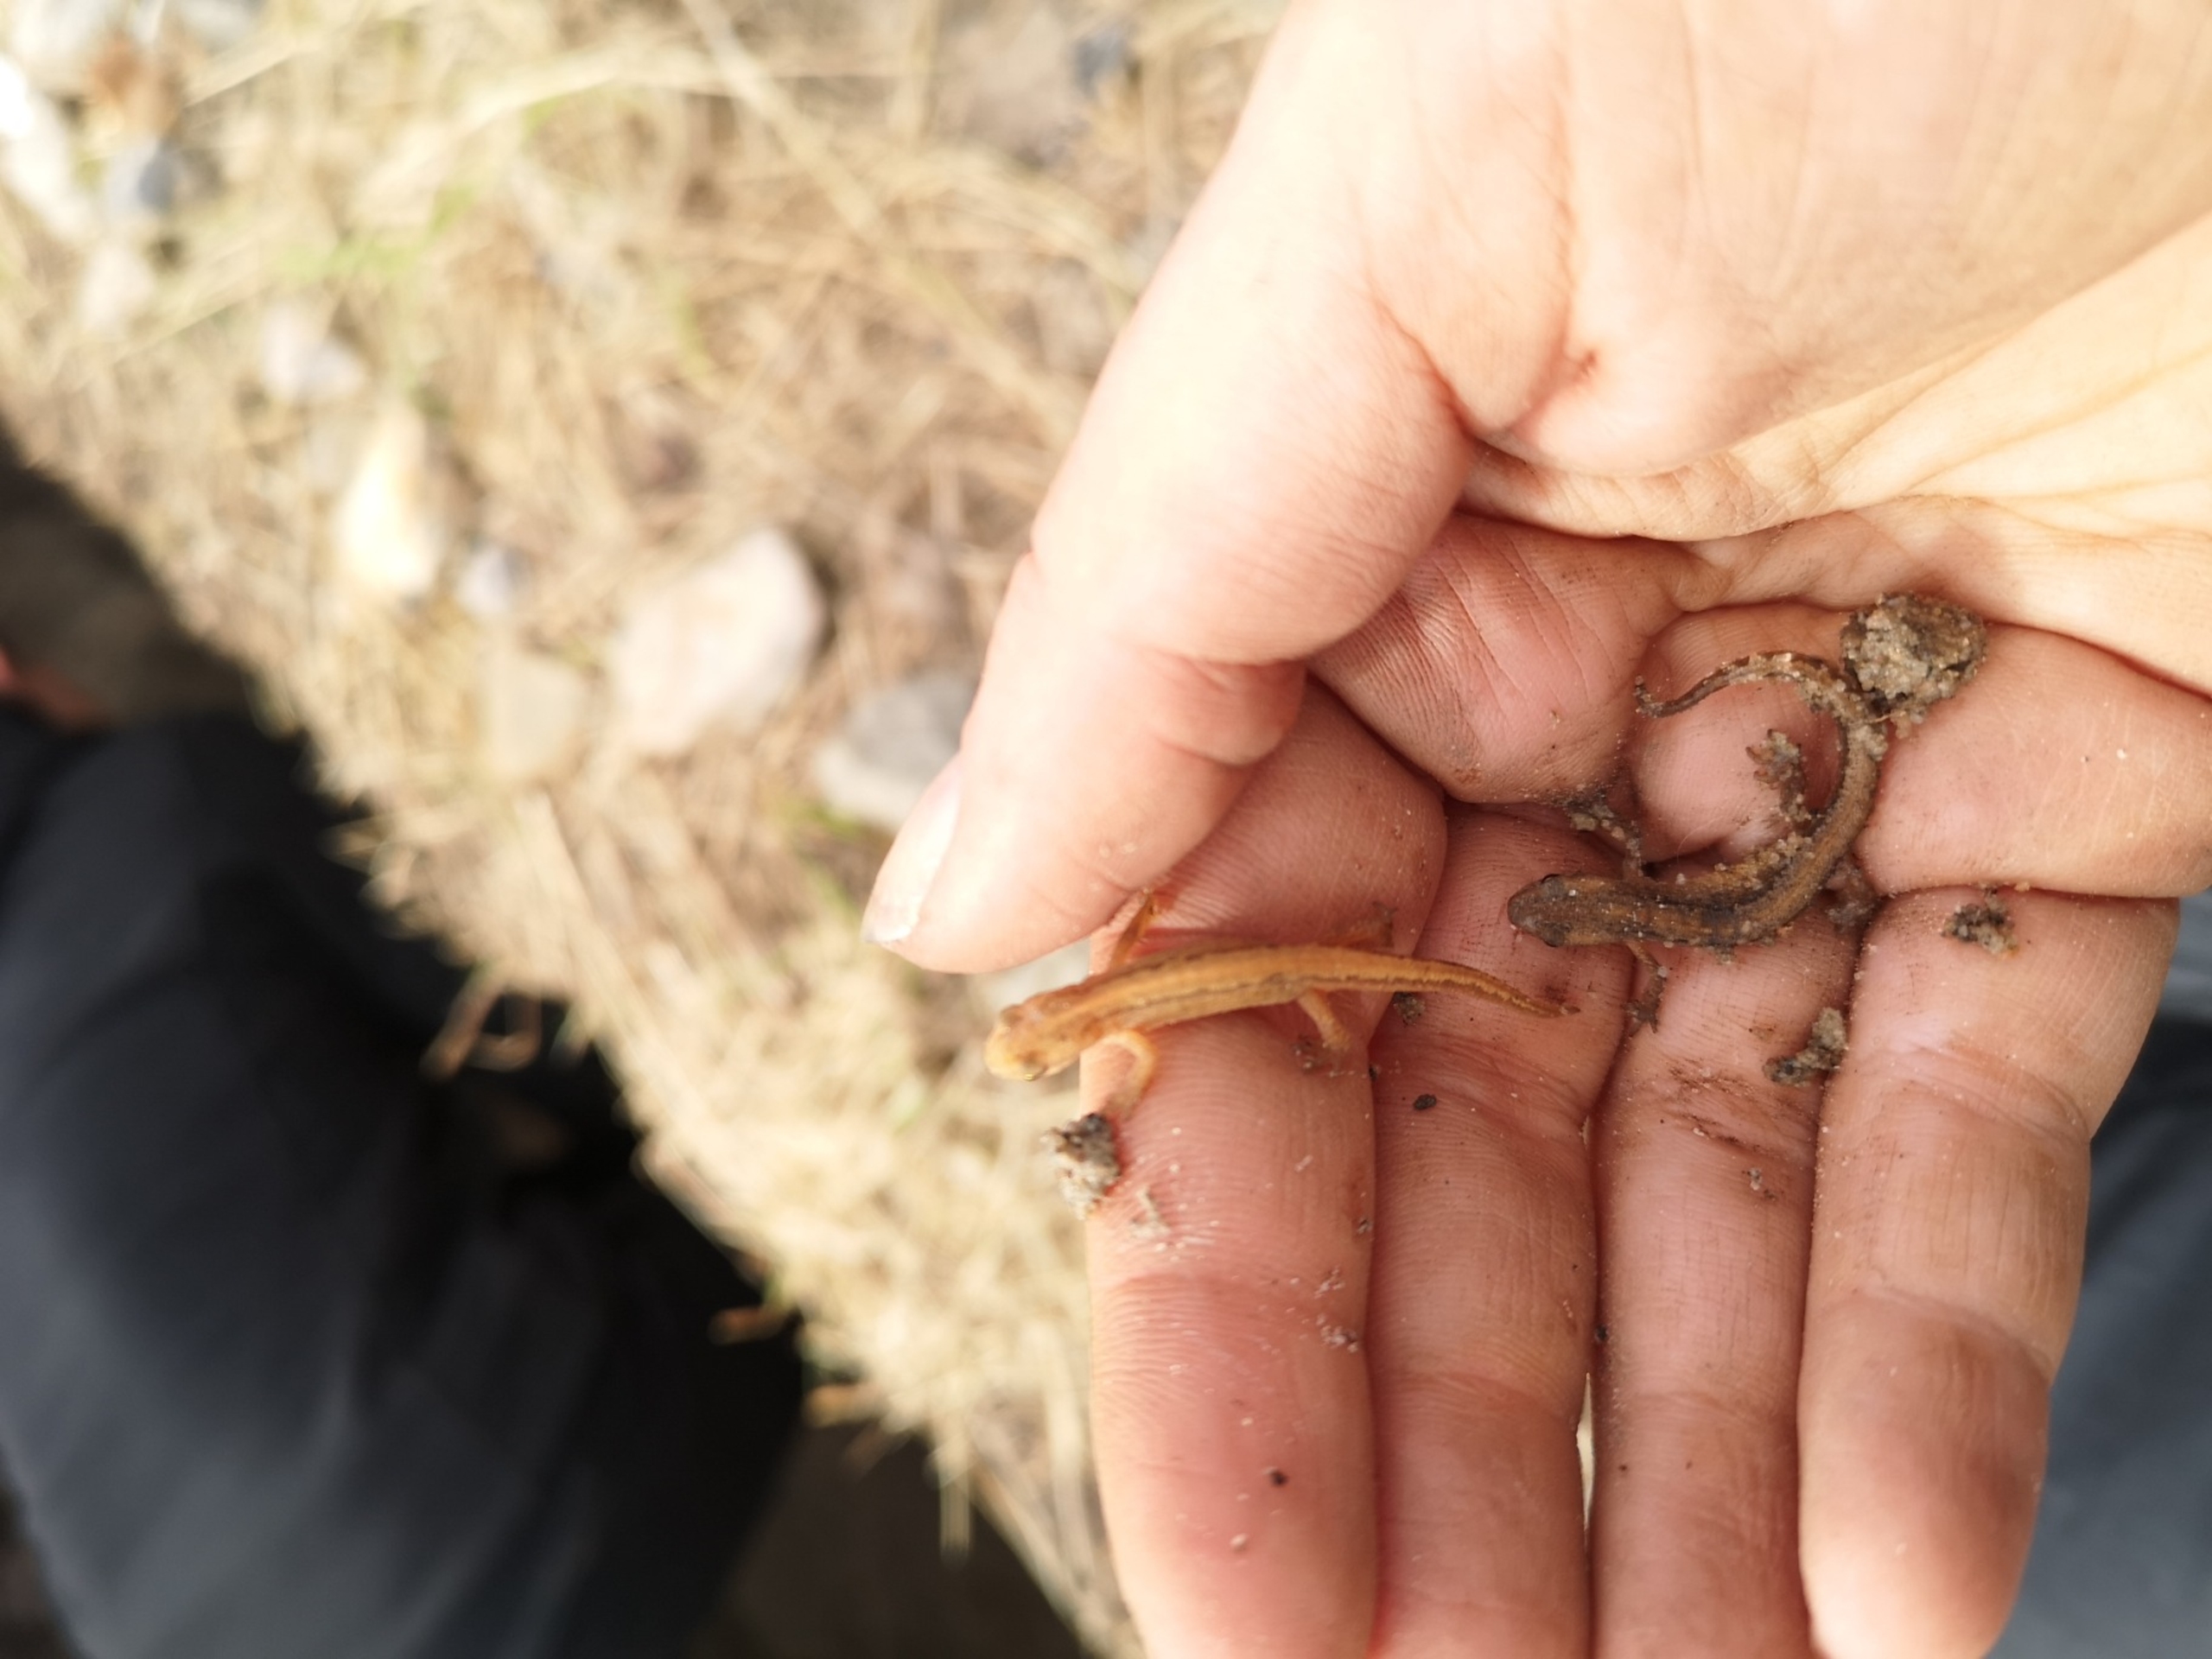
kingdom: Animalia
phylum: Chordata
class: Amphibia
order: Caudata
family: Salamandridae
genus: Lissotriton
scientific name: Lissotriton vulgaris
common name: Lille vandsalamander
